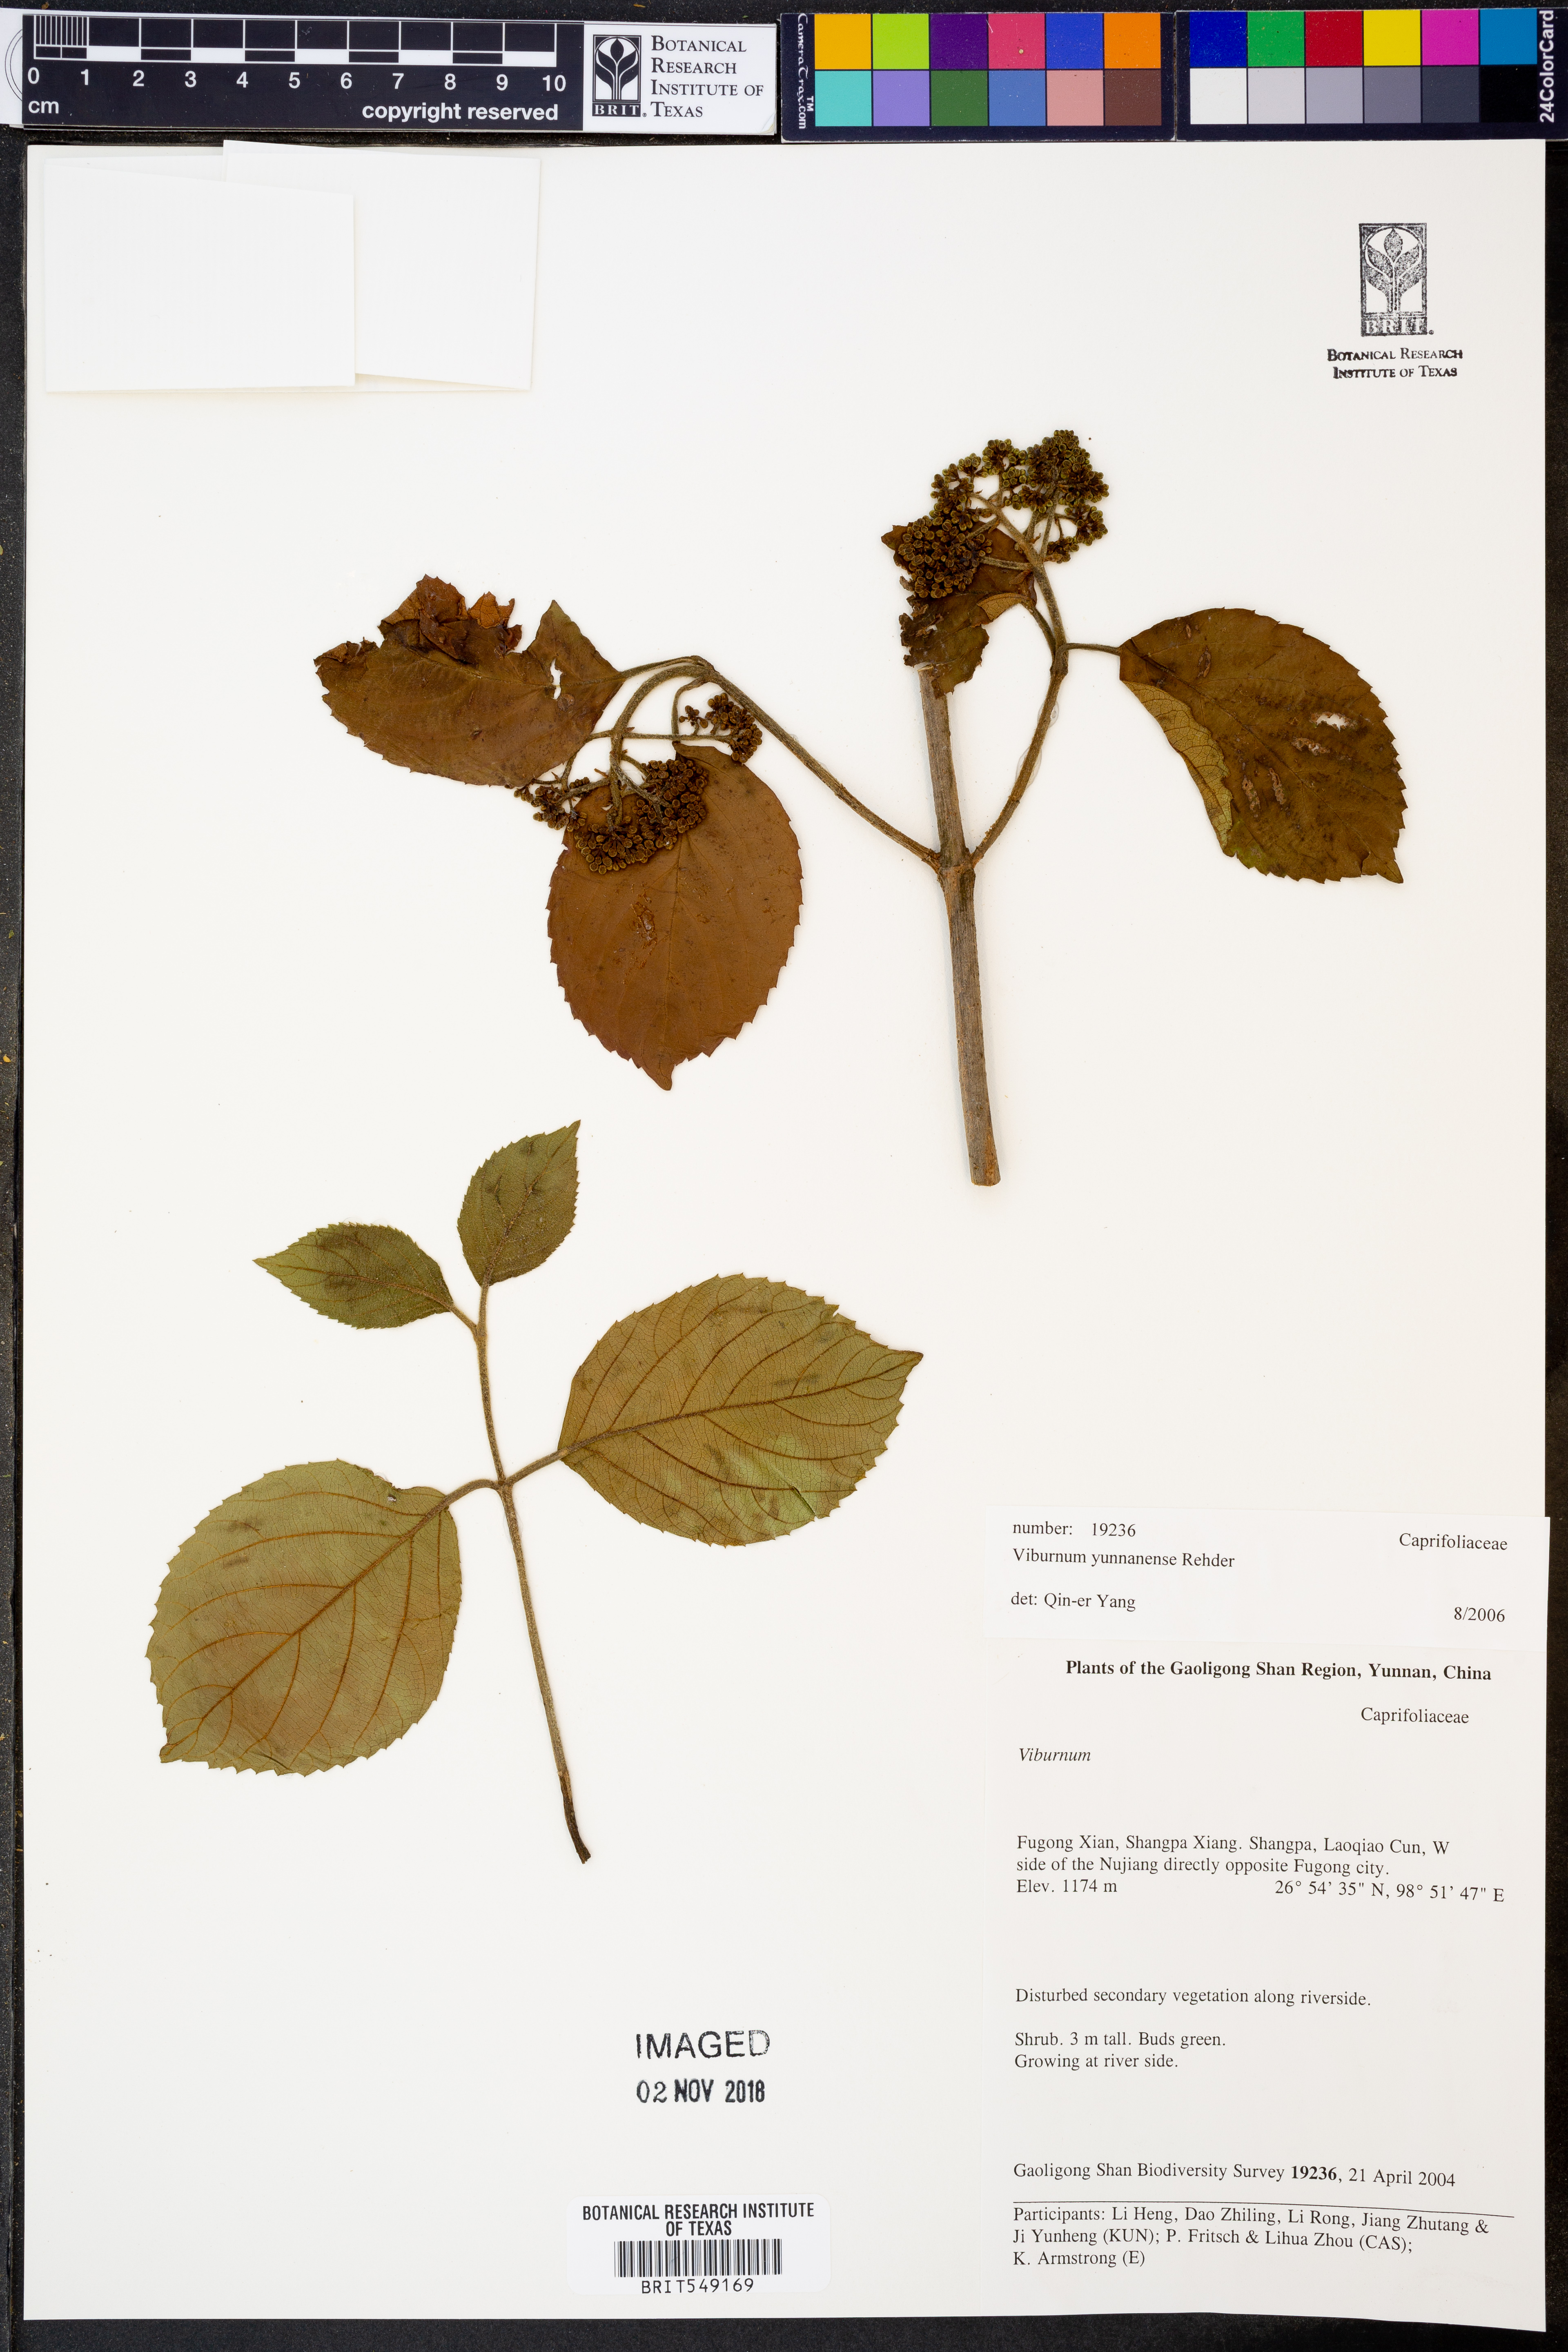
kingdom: Plantae
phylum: Tracheophyta
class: Magnoliopsida
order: Dipsacales
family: Viburnaceae
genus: Viburnum
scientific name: Viburnum yunnanense
